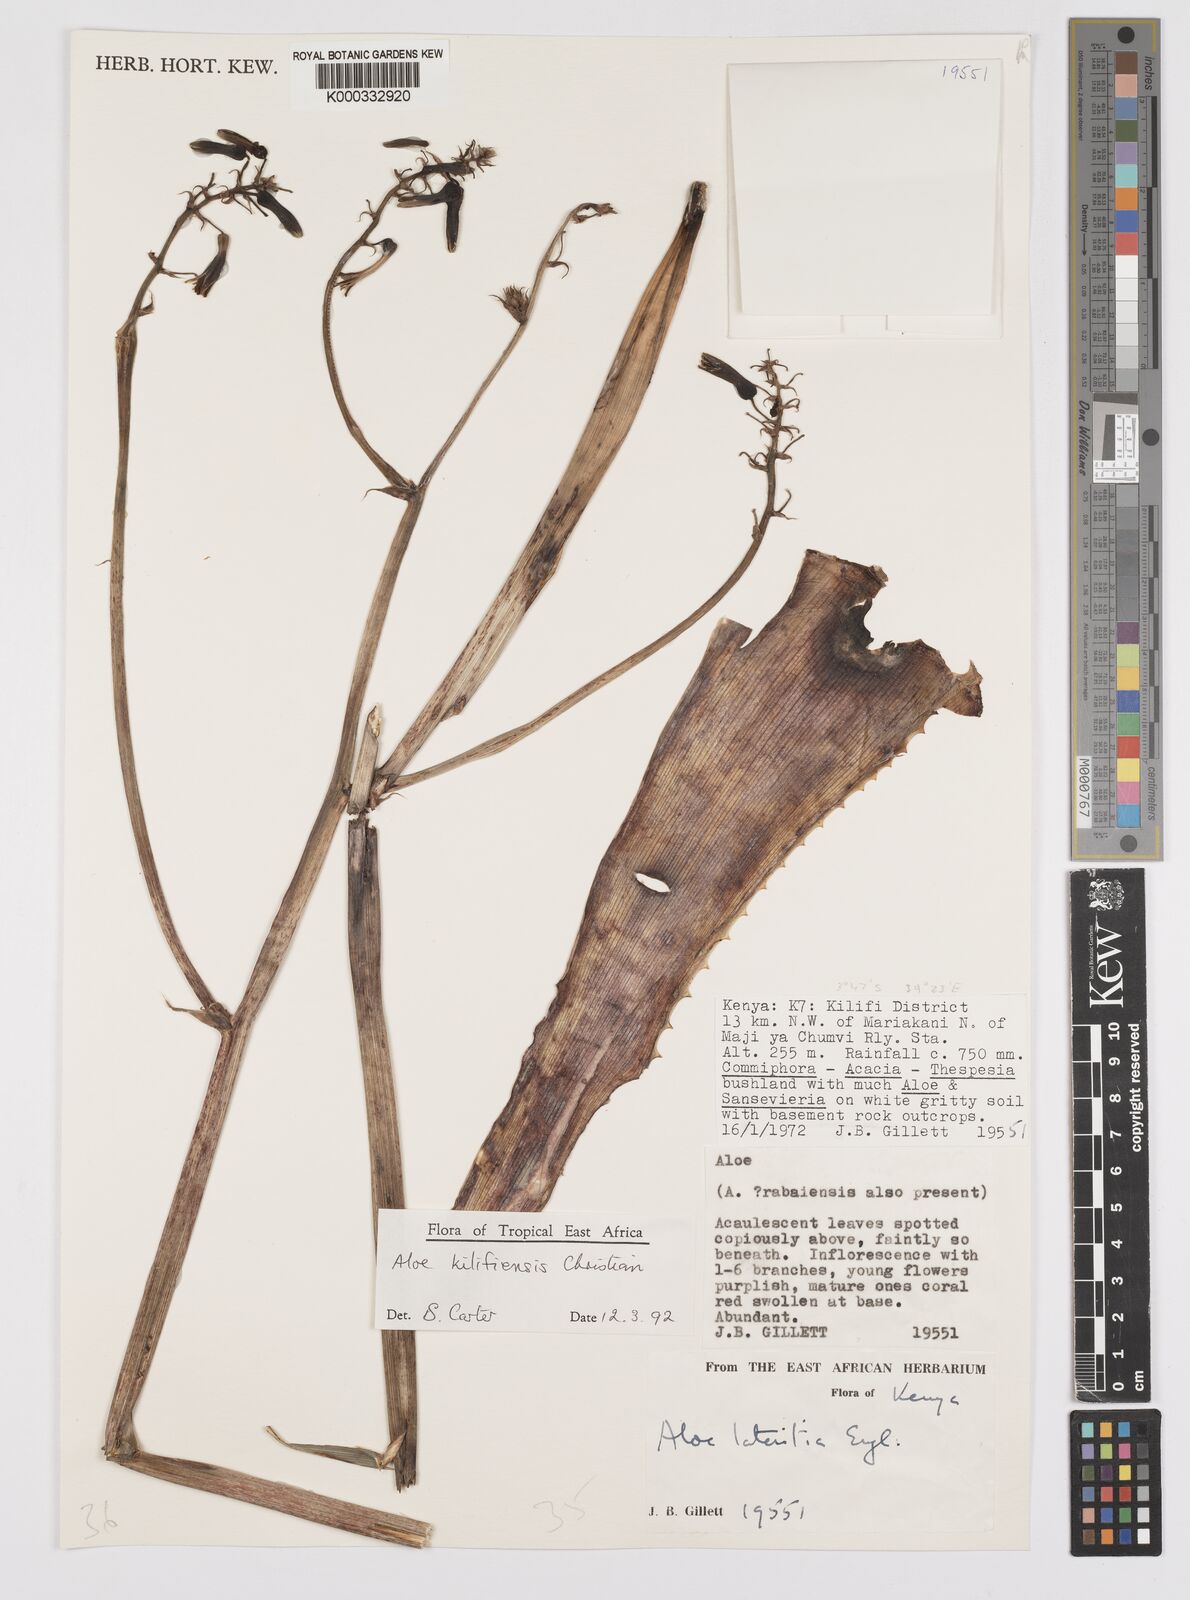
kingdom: Plantae
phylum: Tracheophyta
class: Liliopsida
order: Asparagales
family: Asphodelaceae
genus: Aloe
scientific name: Aloe kilifiensis
